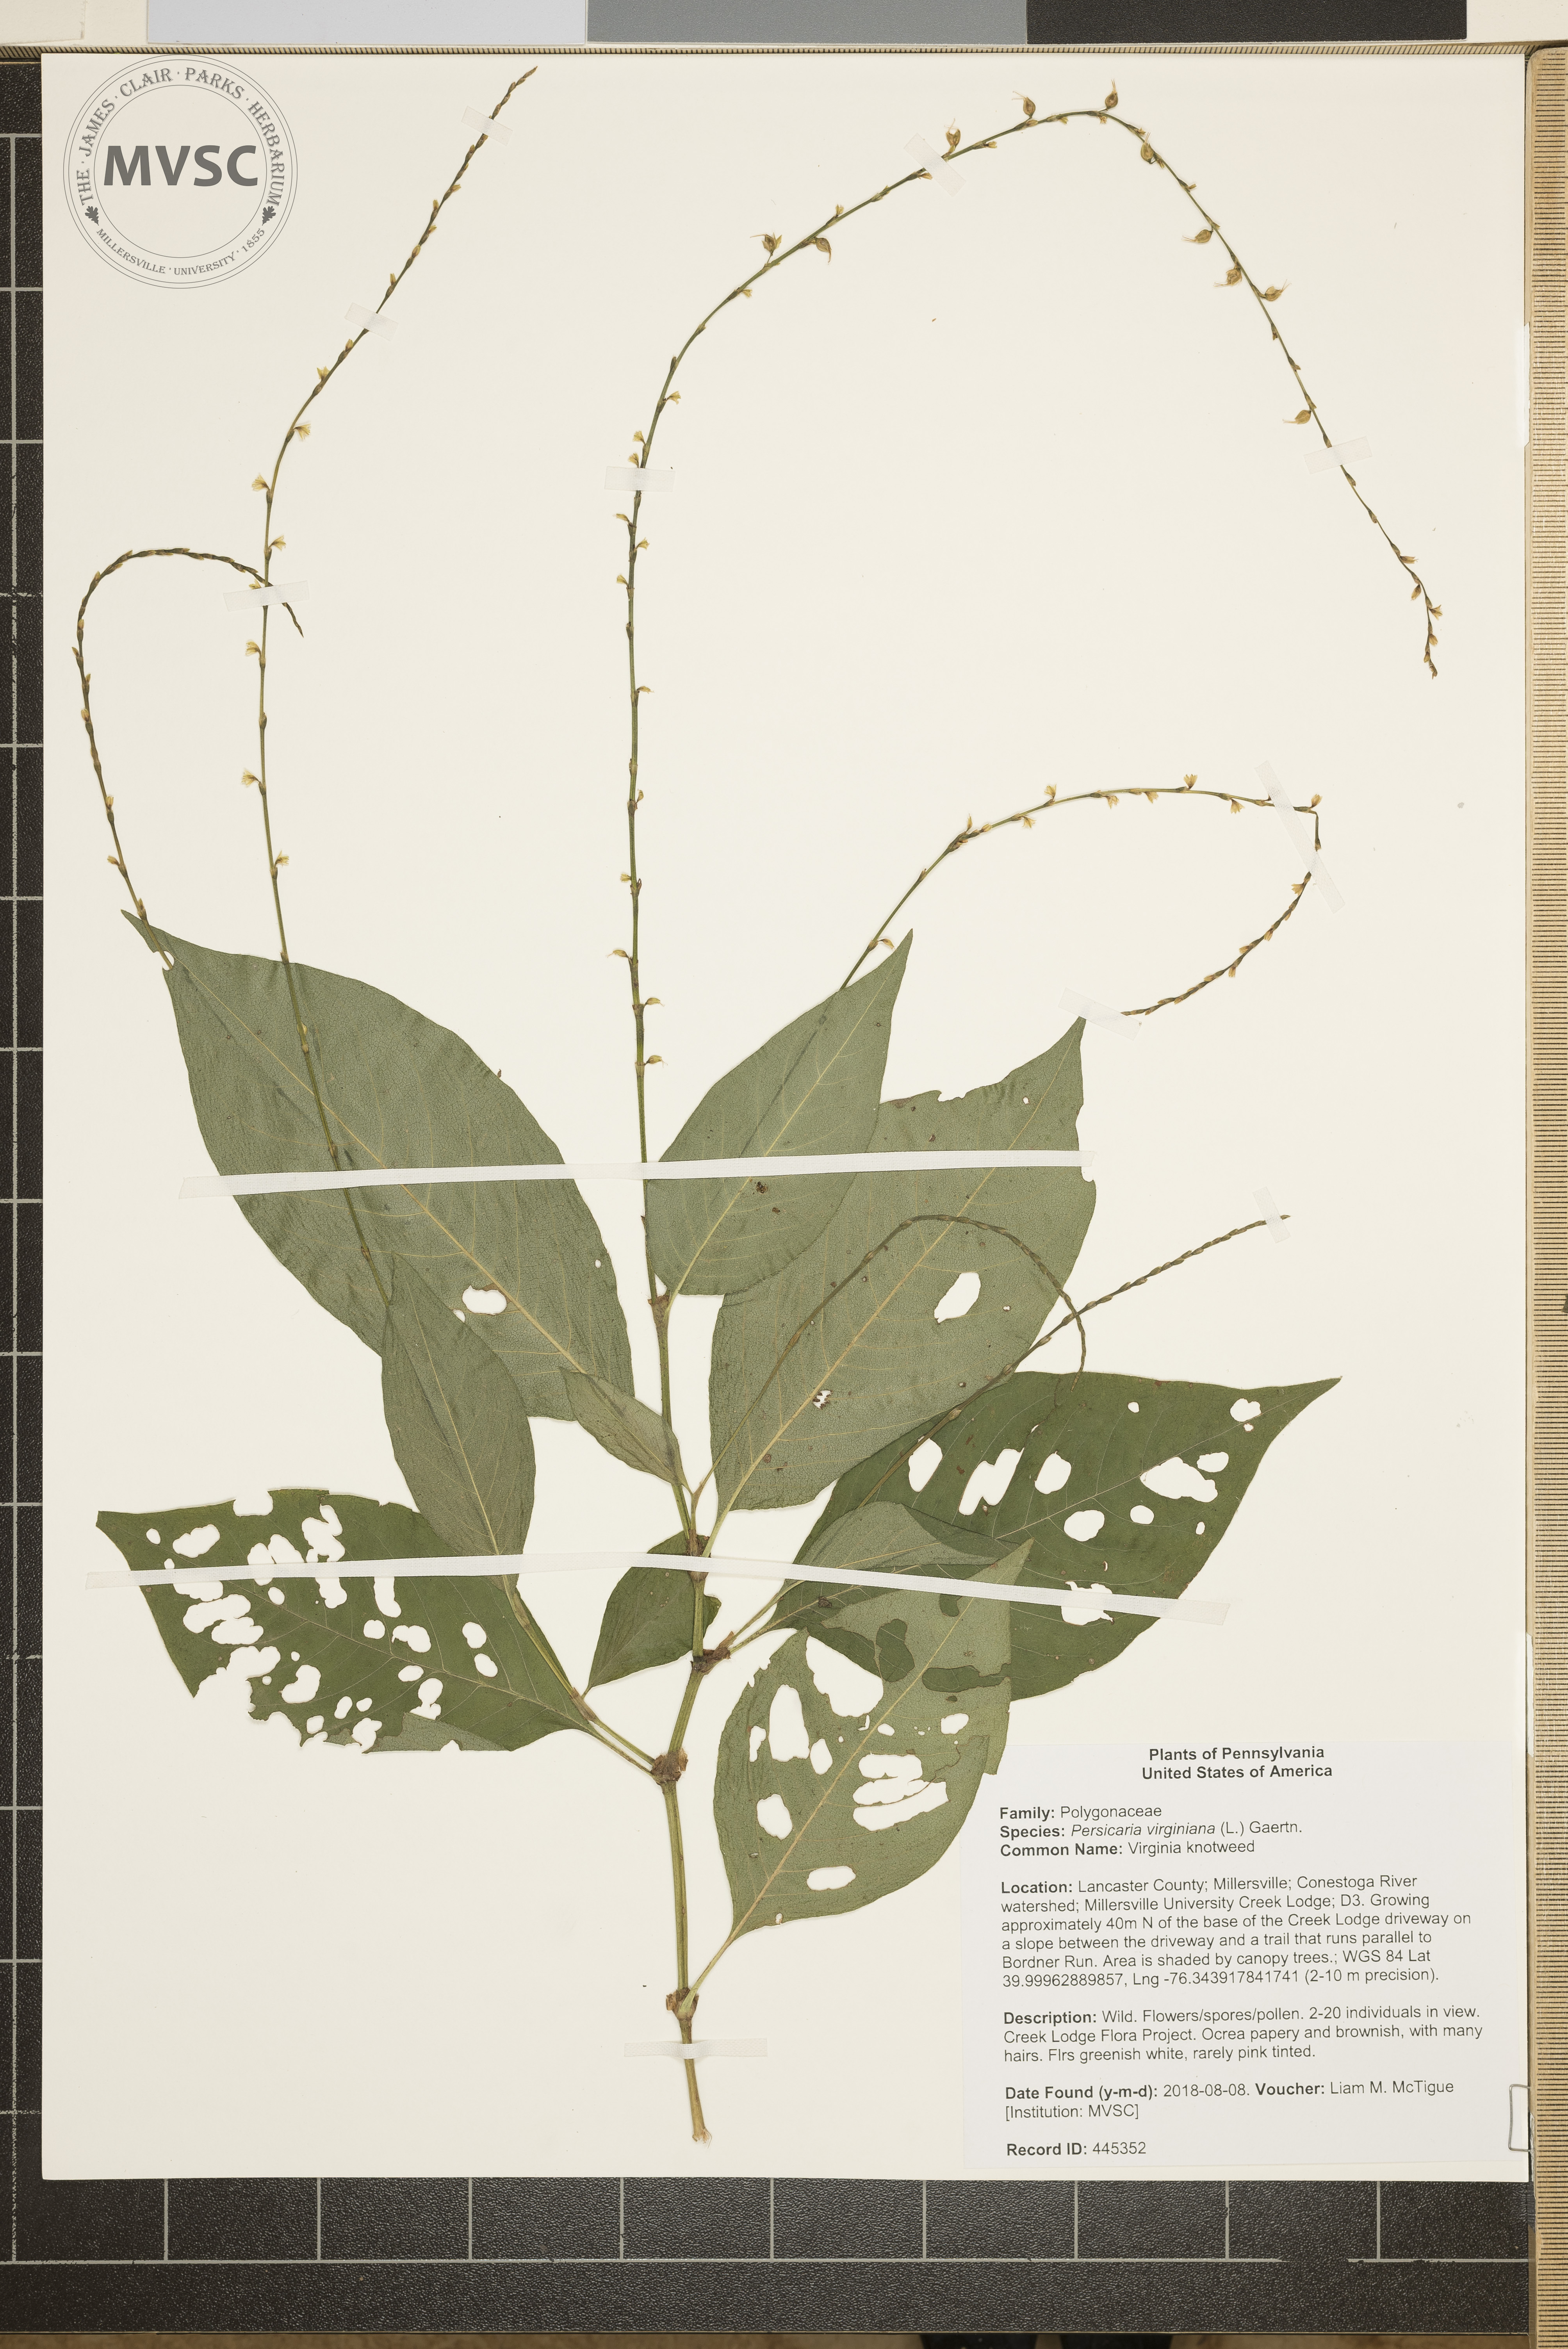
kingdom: Plantae
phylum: Tracheophyta
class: Magnoliopsida
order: Caryophyllales
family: Polygonaceae
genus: Persicaria
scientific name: Persicaria virginiana
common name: Virginia knotweed
